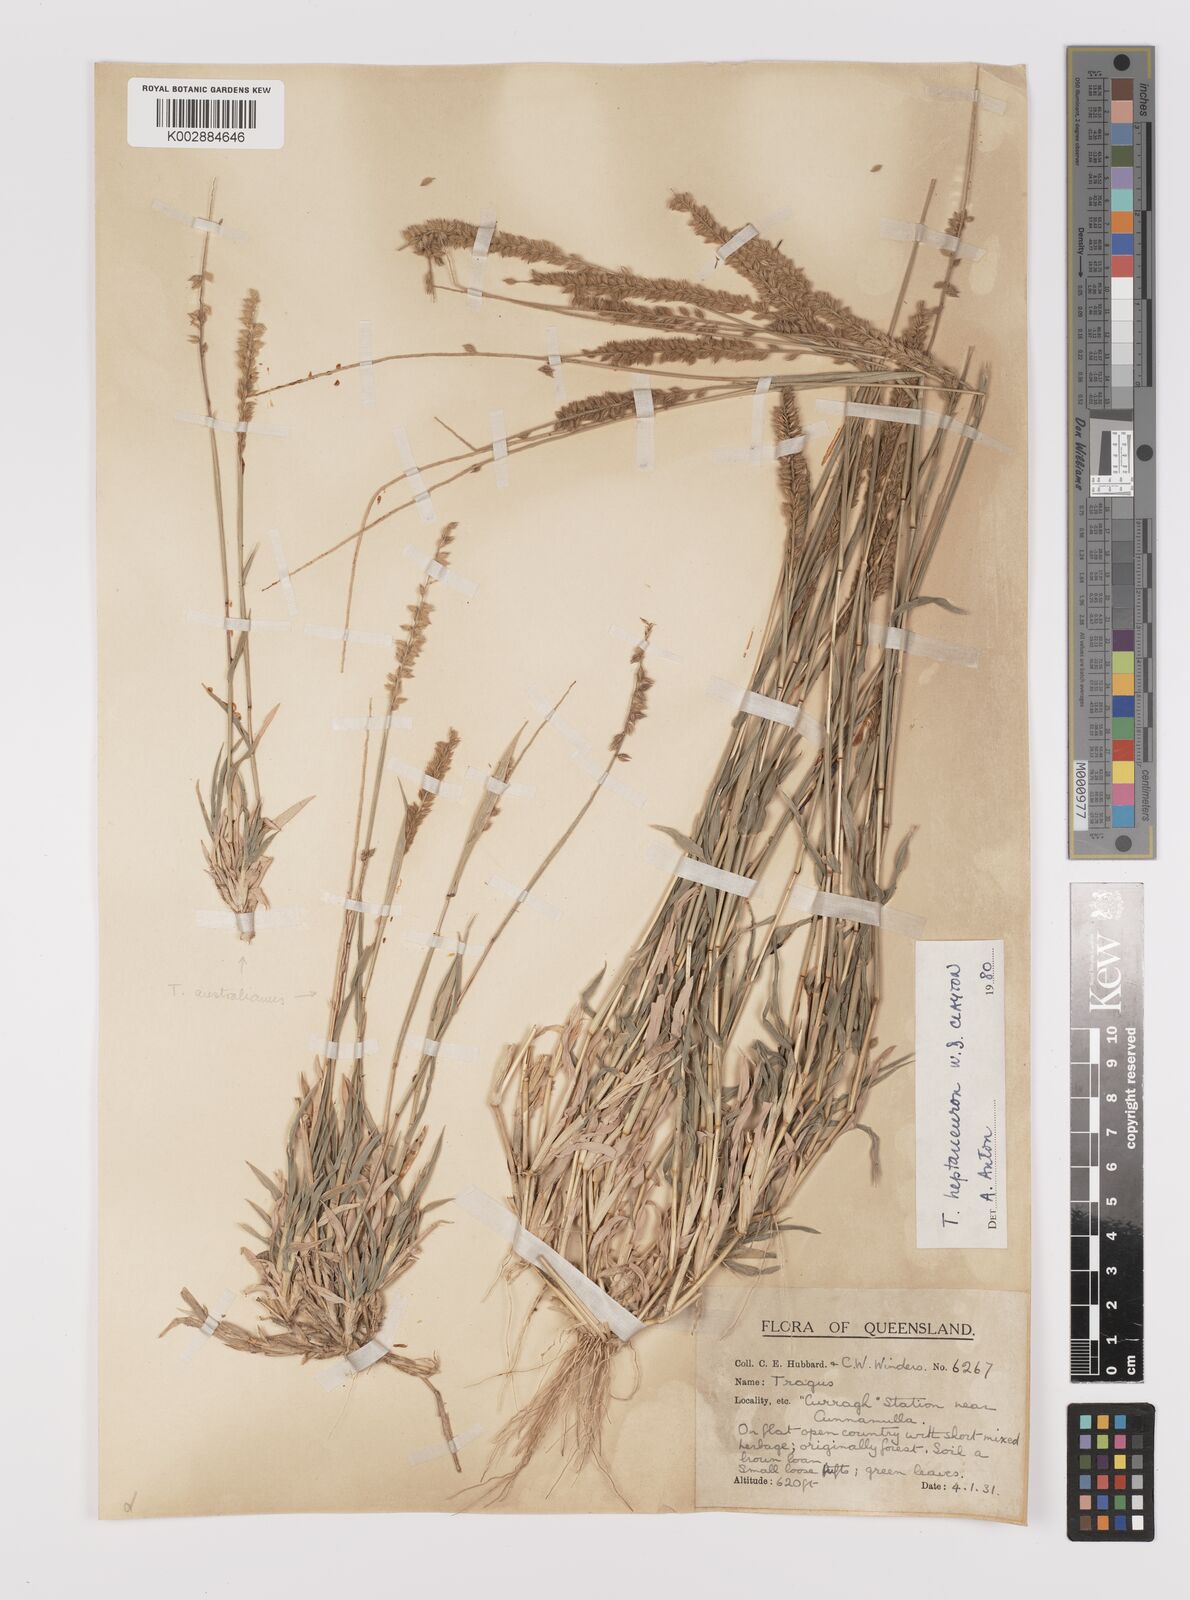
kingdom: Plantae
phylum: Tracheophyta
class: Liliopsida
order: Poales
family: Poaceae
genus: Tragus
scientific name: Tragus australianus
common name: Australian bur-grass
